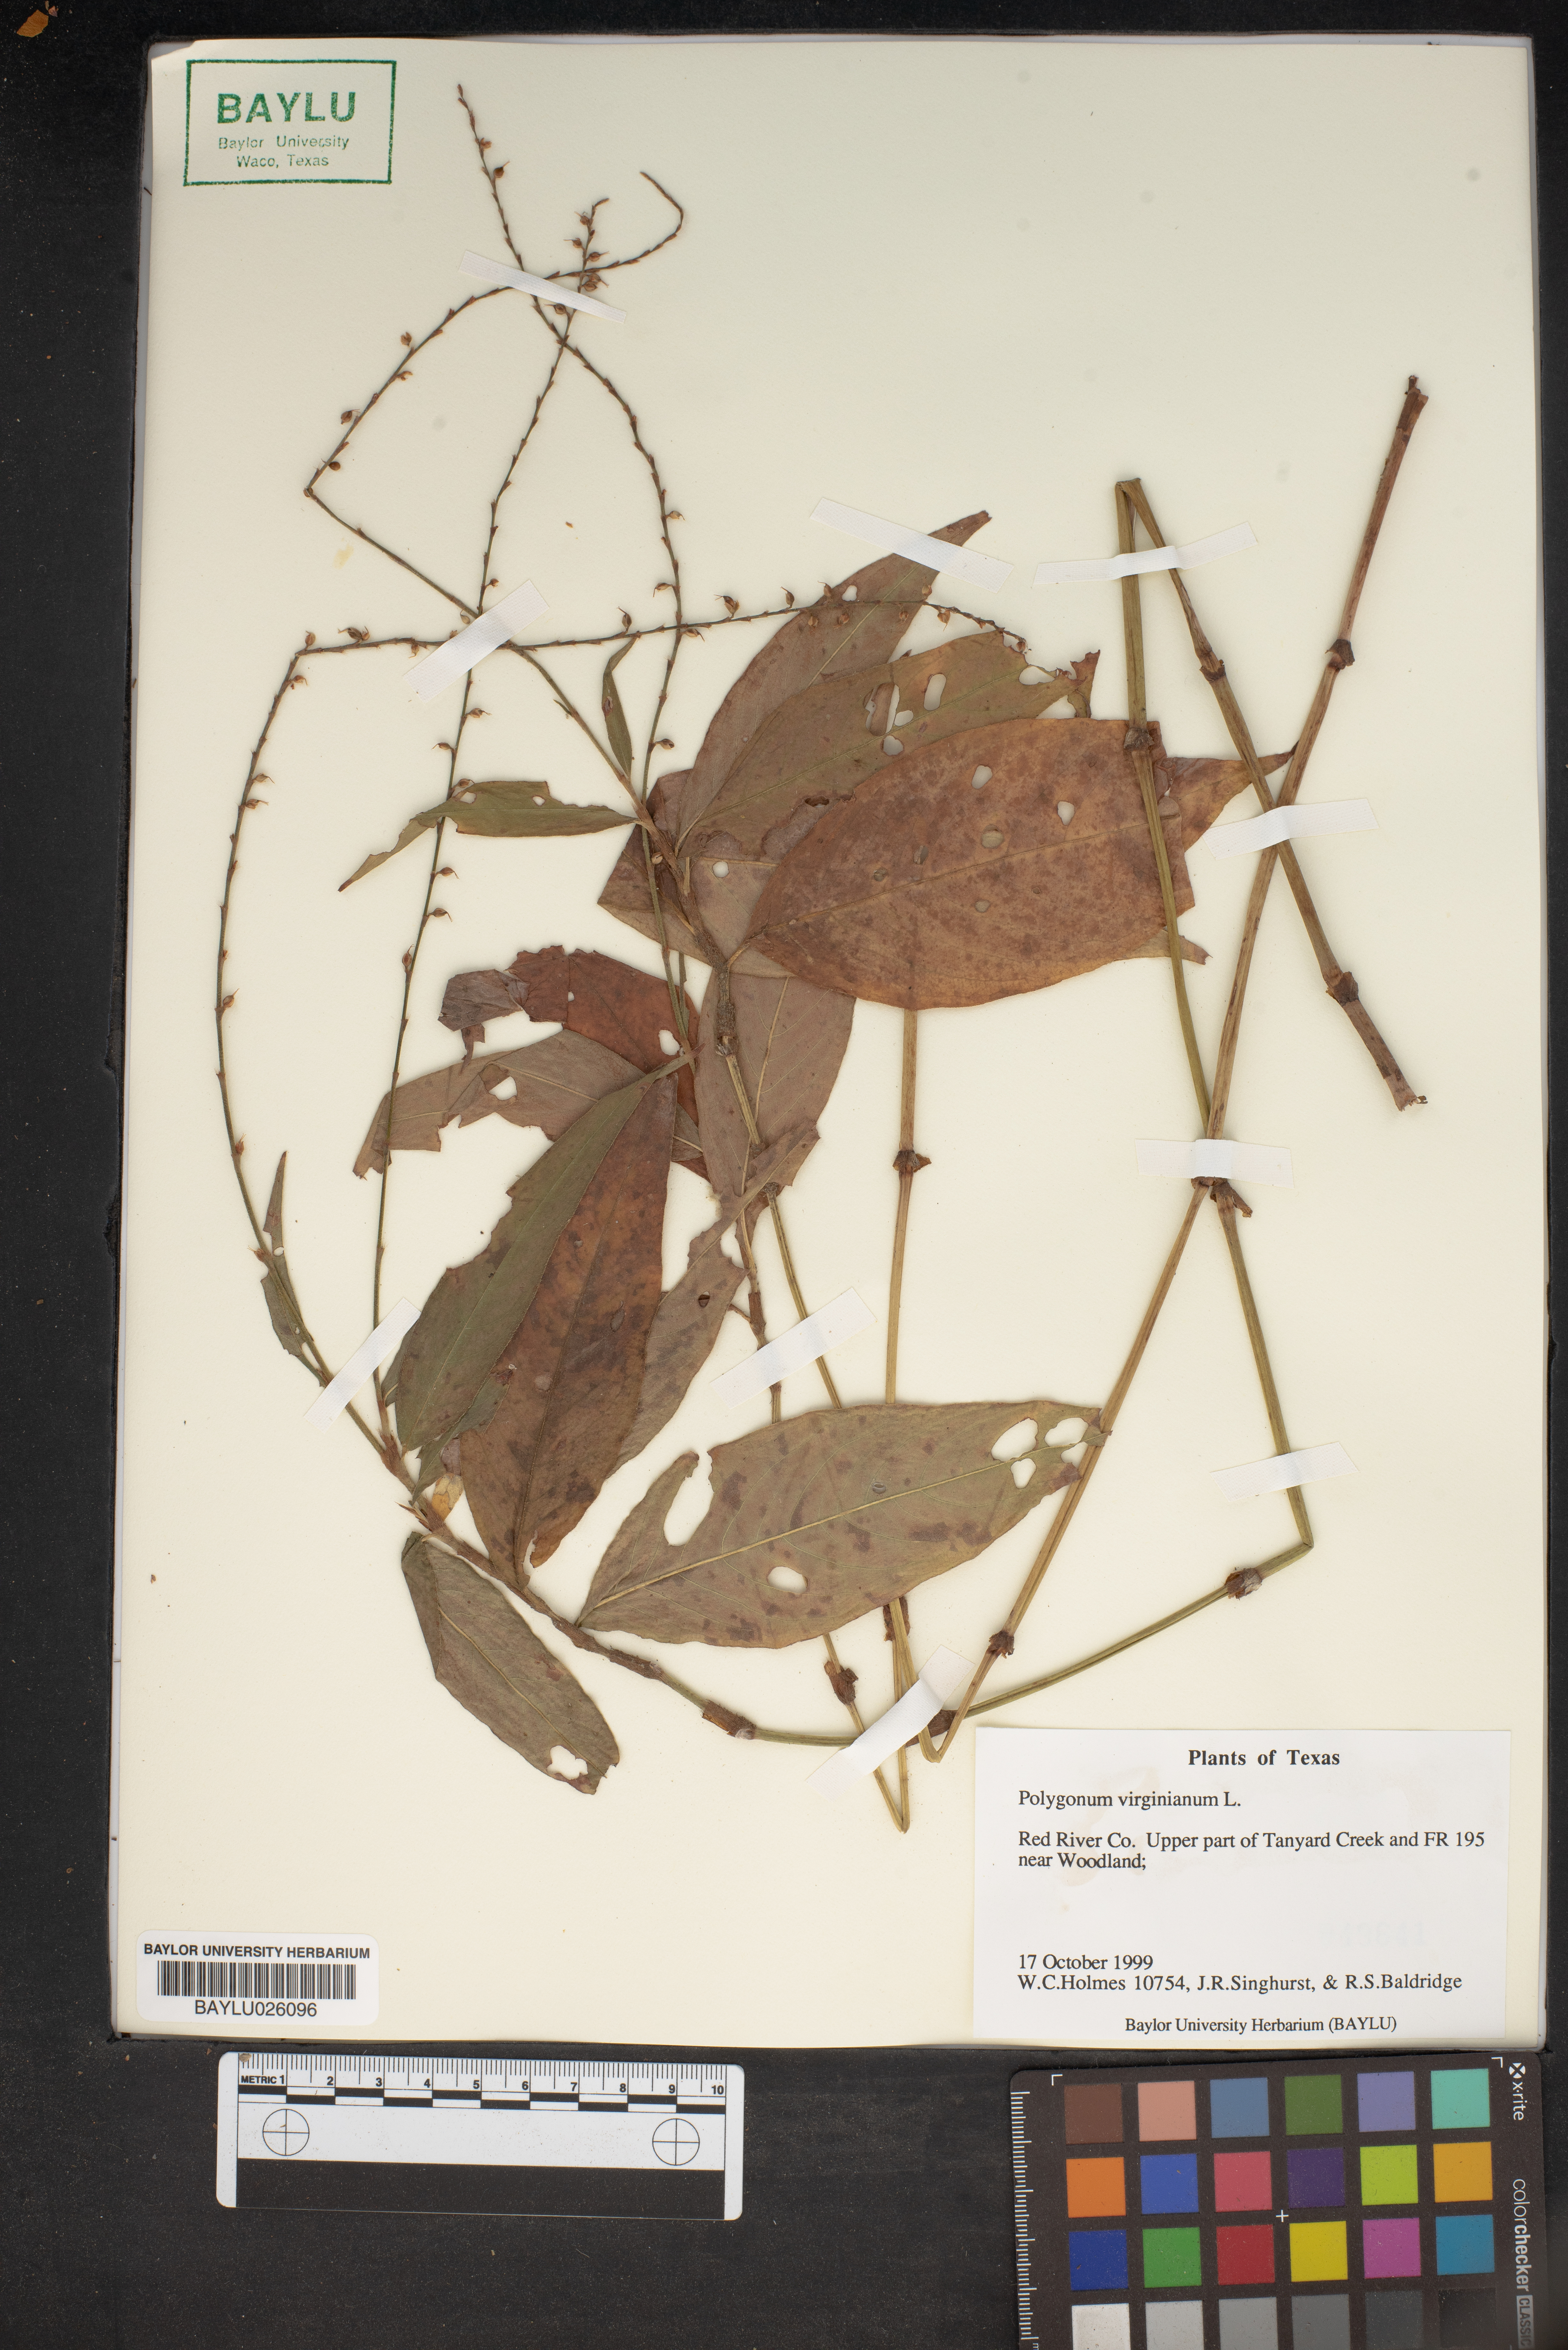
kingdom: Plantae
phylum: Tracheophyta
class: Magnoliopsida
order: Caryophyllales
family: Polygonaceae
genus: Persicaria
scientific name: Persicaria virginiana
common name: Jumpseed
